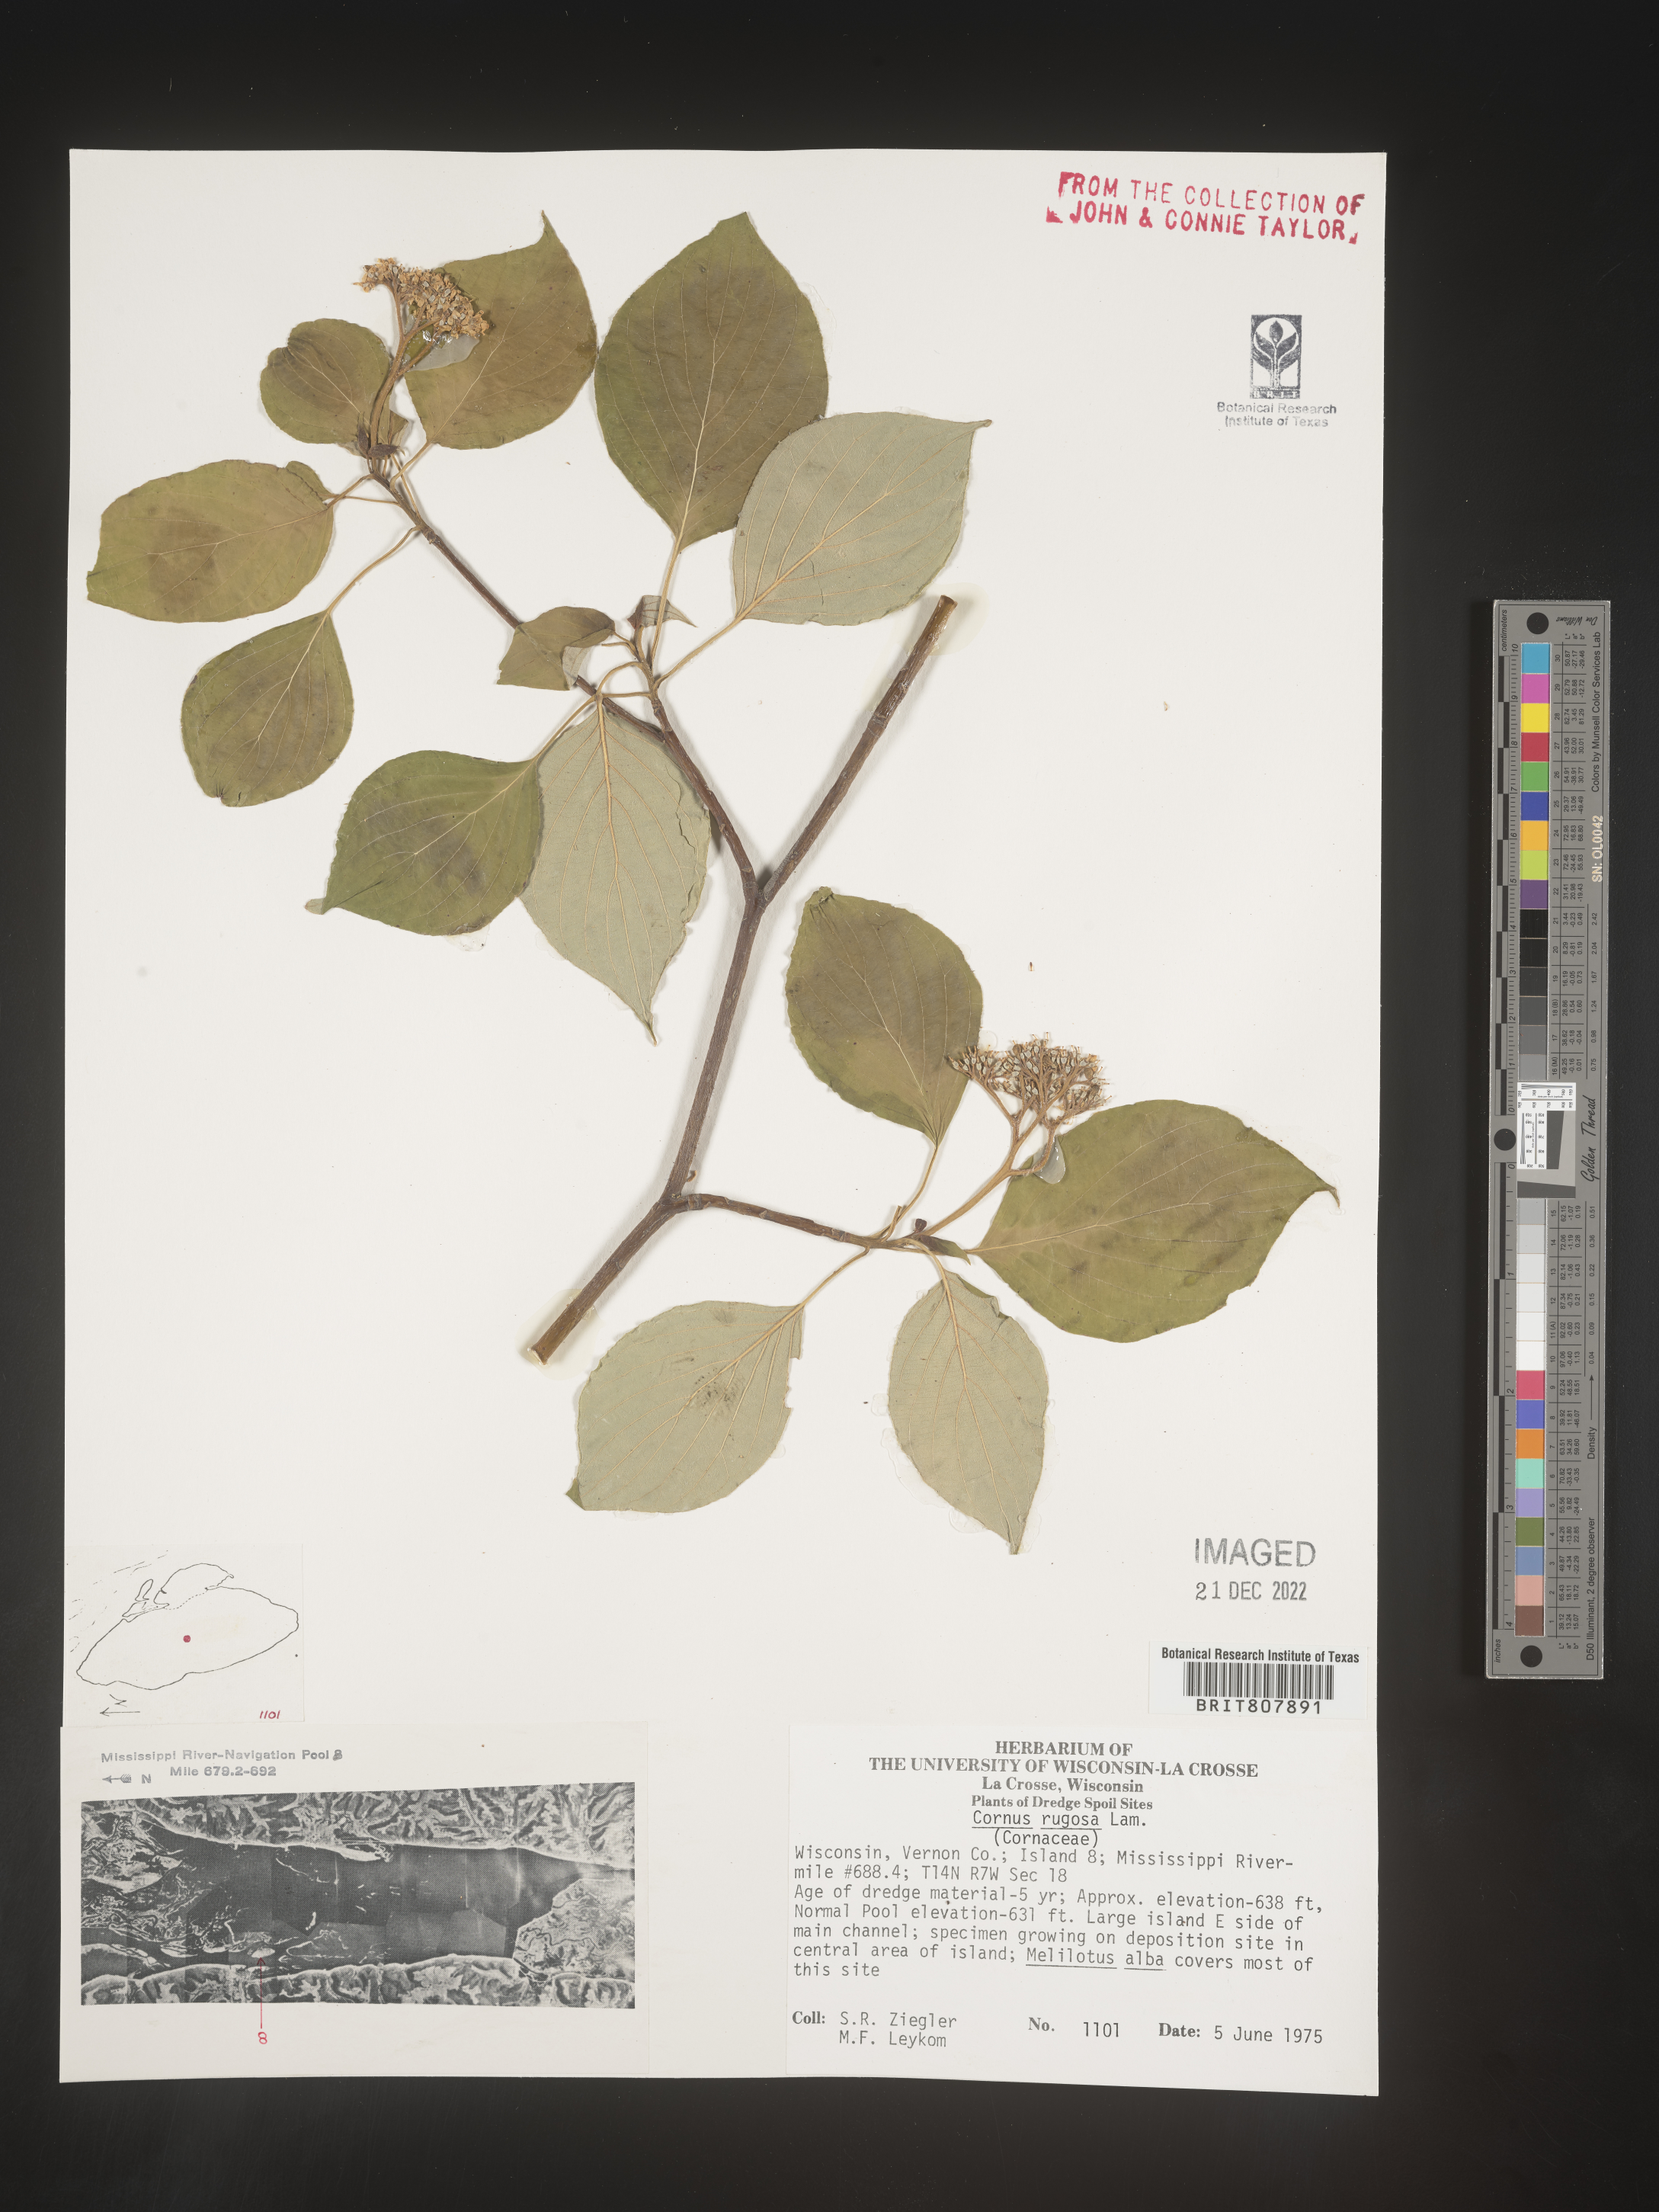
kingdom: Plantae
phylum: Tracheophyta
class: Magnoliopsida
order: Cornales
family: Cornaceae
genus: Cornus
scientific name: Cornus rugosa
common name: Round-leaf dogwood
